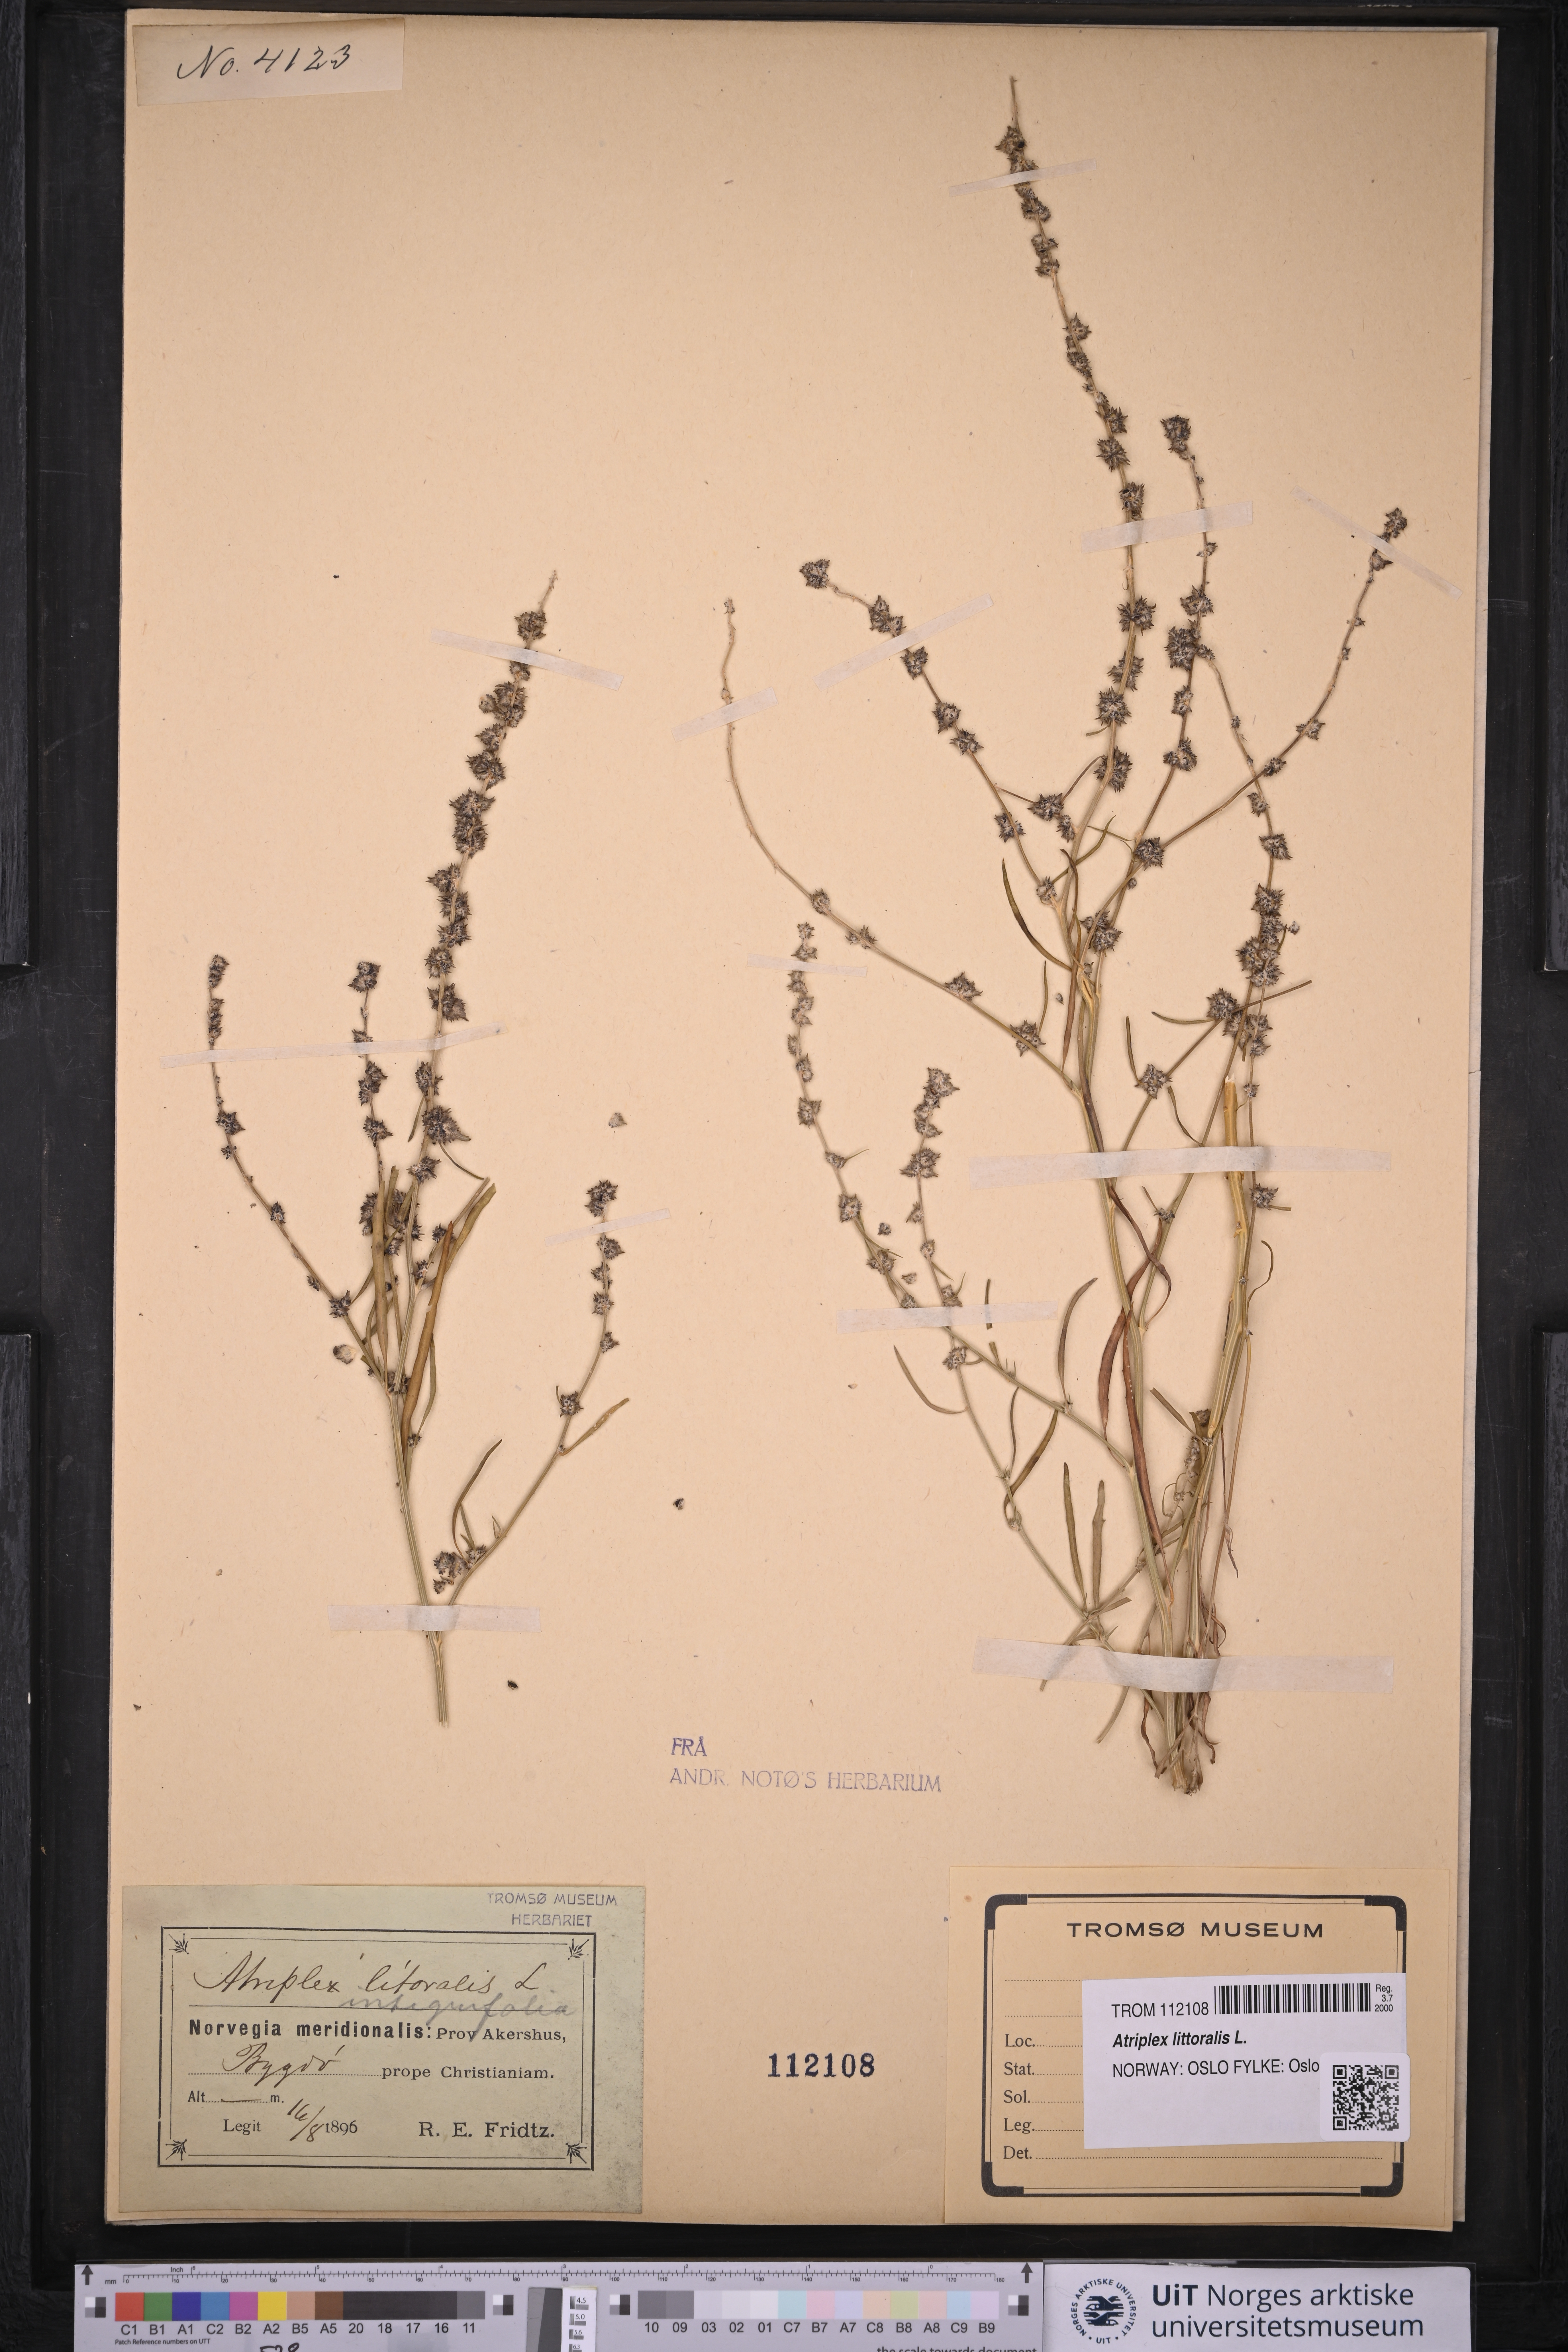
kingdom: Plantae
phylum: Tracheophyta
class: Magnoliopsida
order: Caryophyllales
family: Amaranthaceae
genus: Atriplex
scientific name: Atriplex littoralis
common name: Grass-leaved orache
